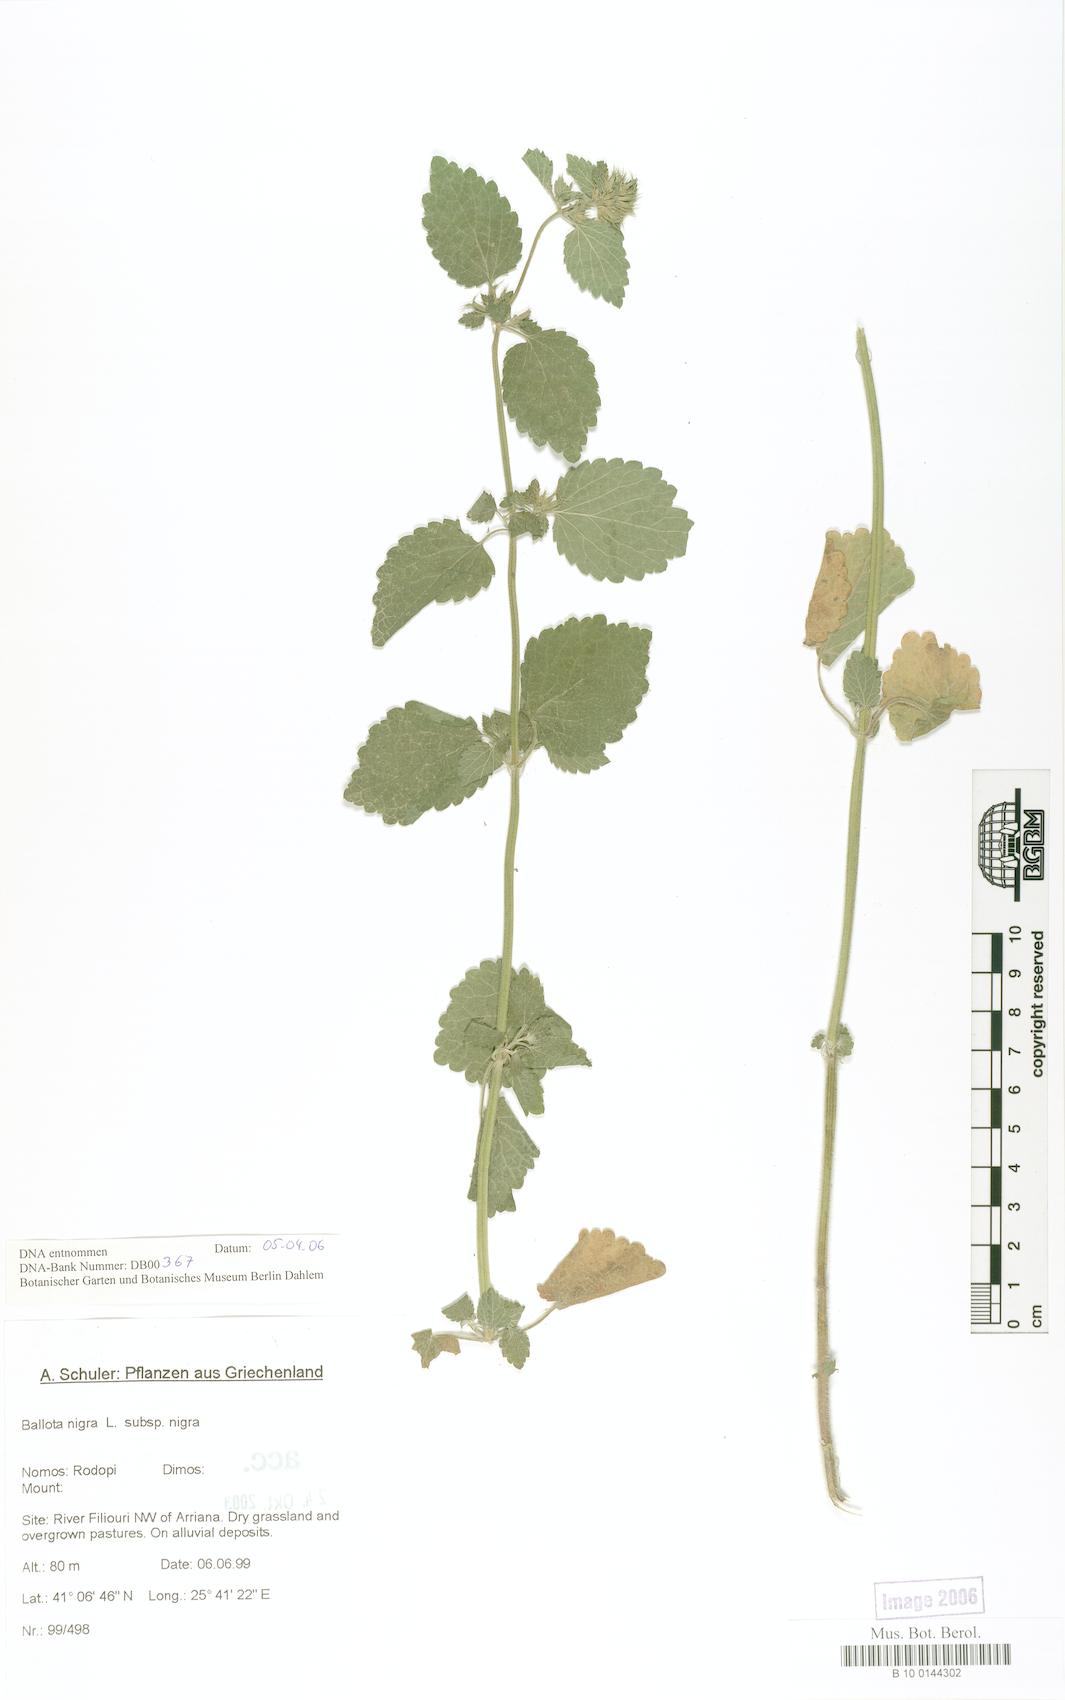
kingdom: Plantae
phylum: Tracheophyta
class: Magnoliopsida
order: Lamiales
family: Lamiaceae
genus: Ballota
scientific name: Ballota nigra
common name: Black horehound
